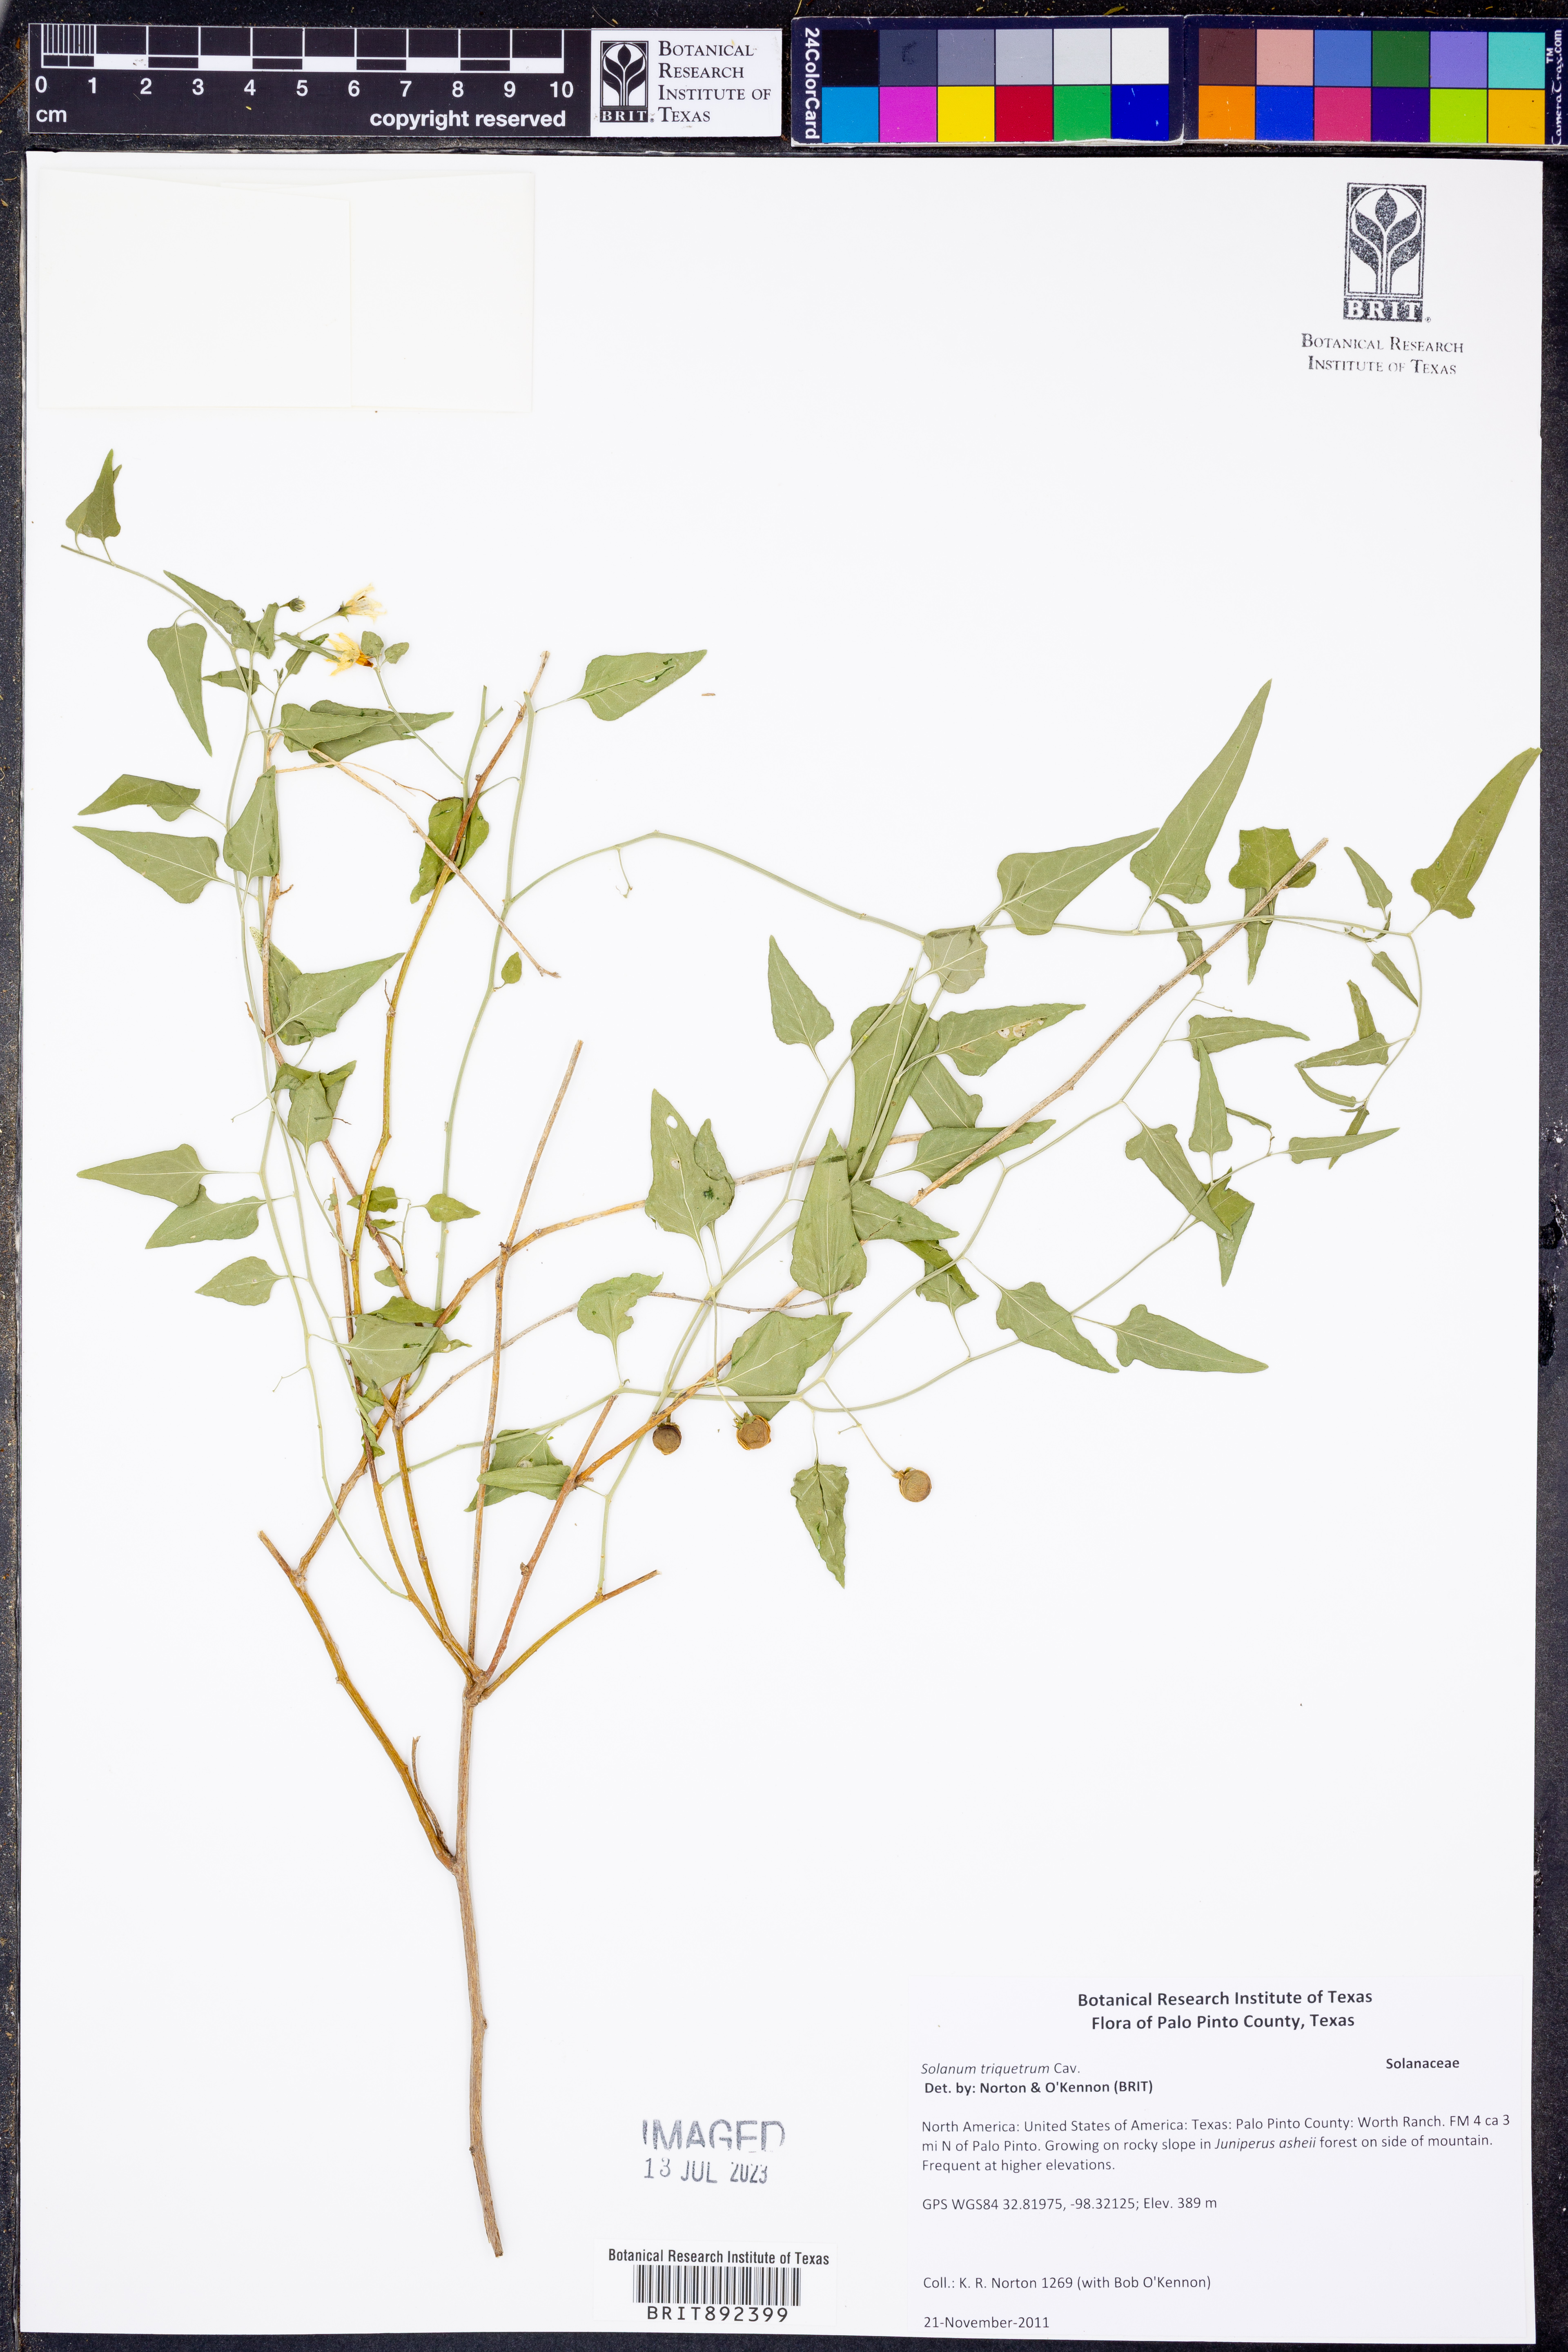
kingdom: Plantae
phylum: Tracheophyta
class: Magnoliopsida
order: Solanales
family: Solanaceae
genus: Solanum
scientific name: Solanum triquetrum
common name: Texas nightshade
